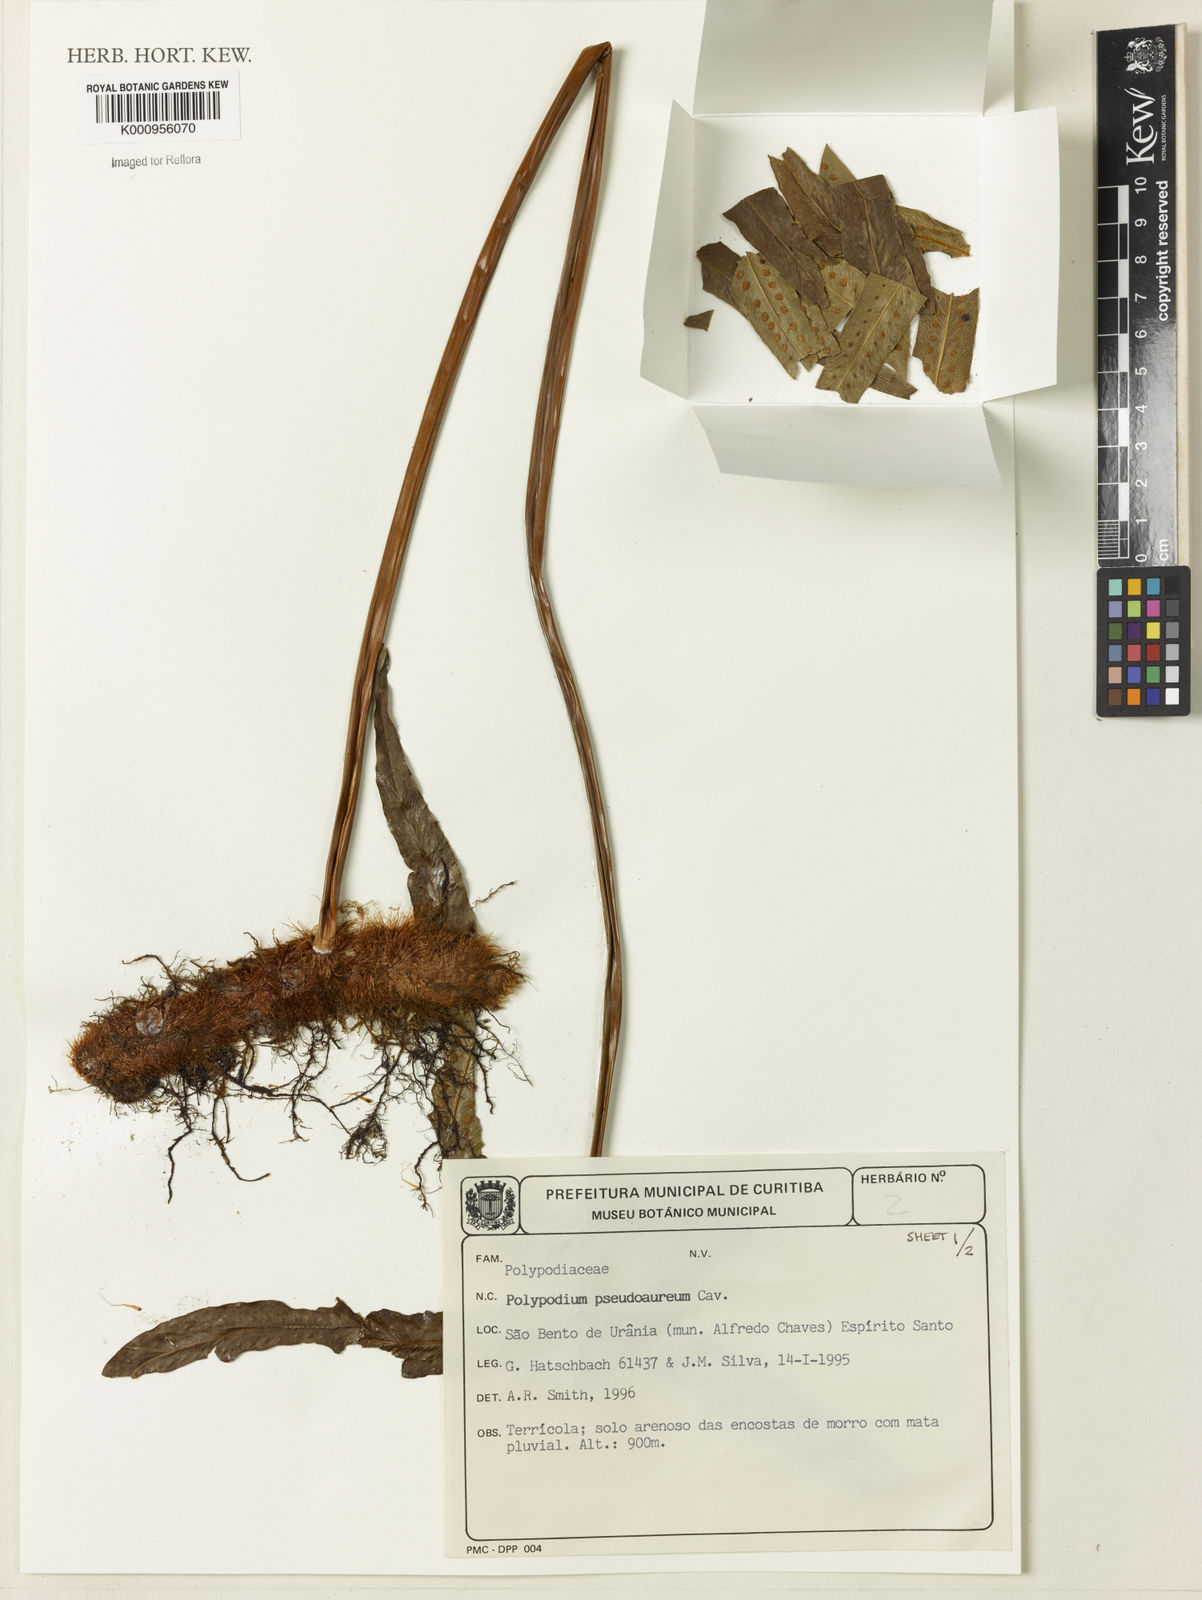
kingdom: Plantae
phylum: Tracheophyta
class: Polypodiopsida
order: Polypodiales
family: Polypodiaceae
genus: Phlebodium
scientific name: Phlebodium aureum
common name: Gold-foot fern
